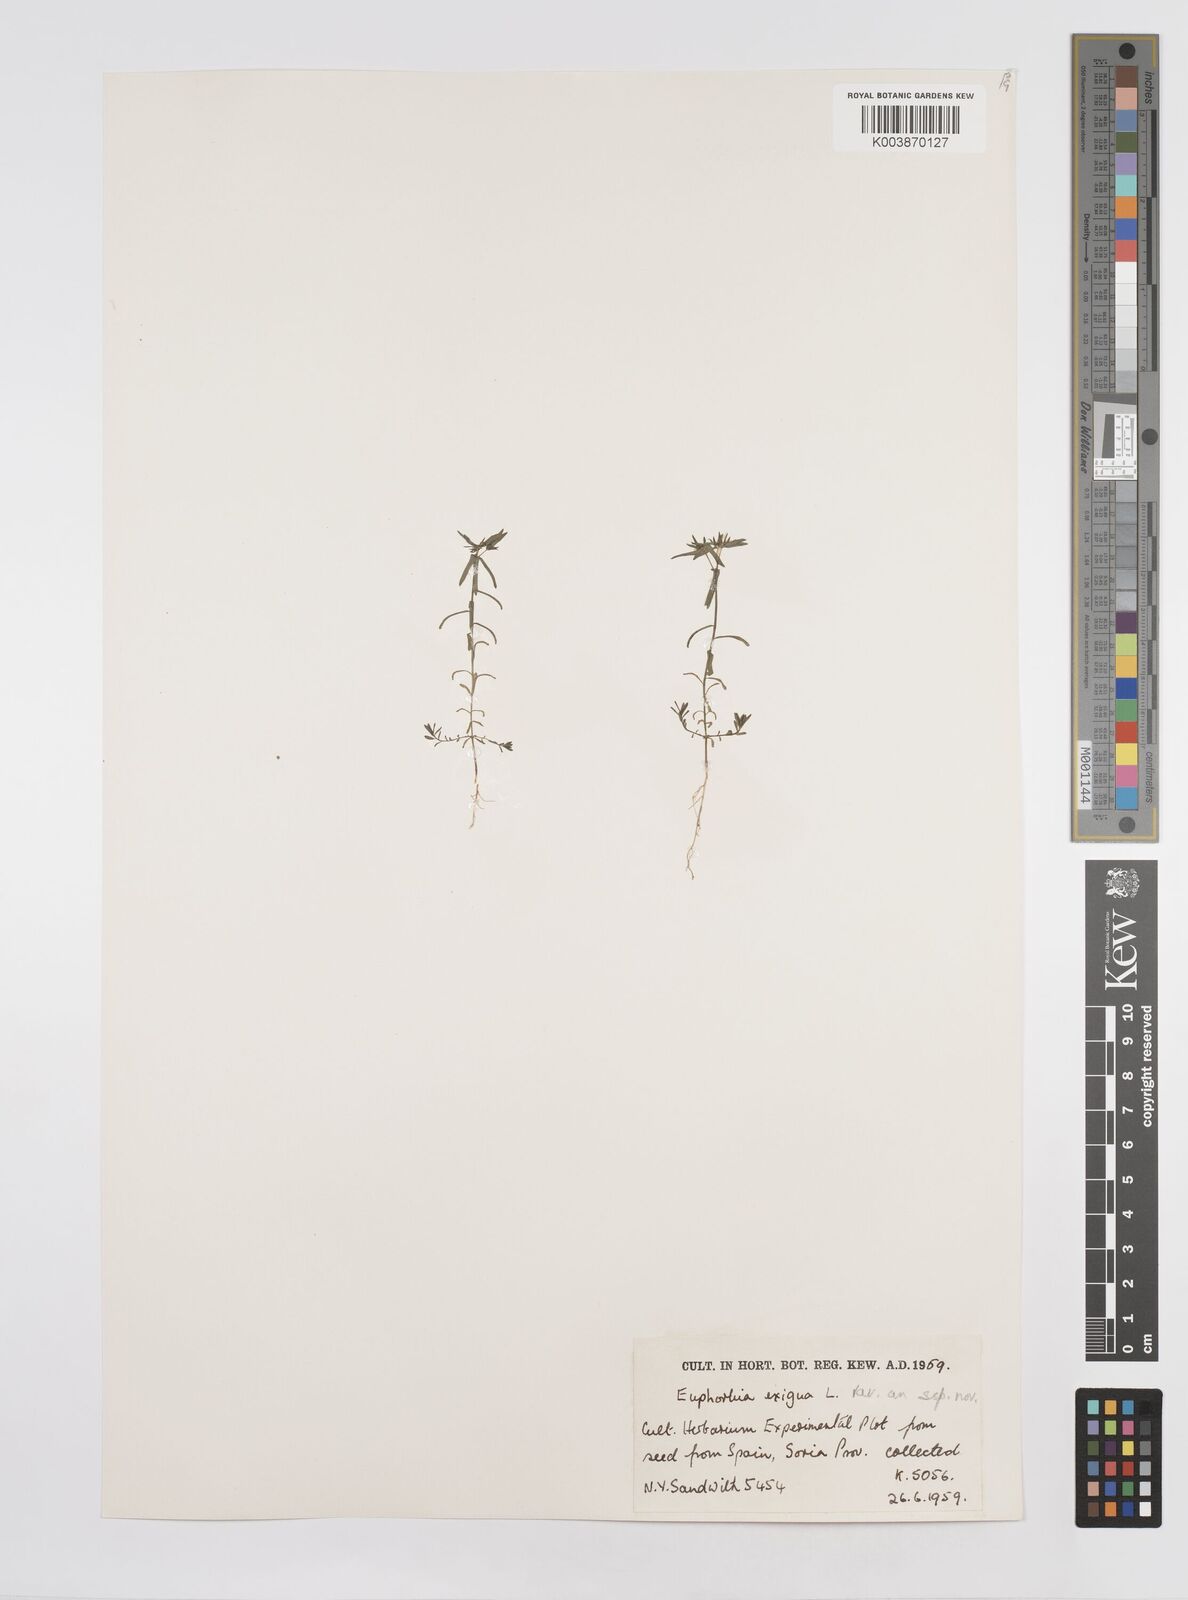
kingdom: Plantae
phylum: Tracheophyta
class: Magnoliopsida
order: Malpighiales
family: Euphorbiaceae
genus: Euphorbia
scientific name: Euphorbia exigua
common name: Dwarf spurge
